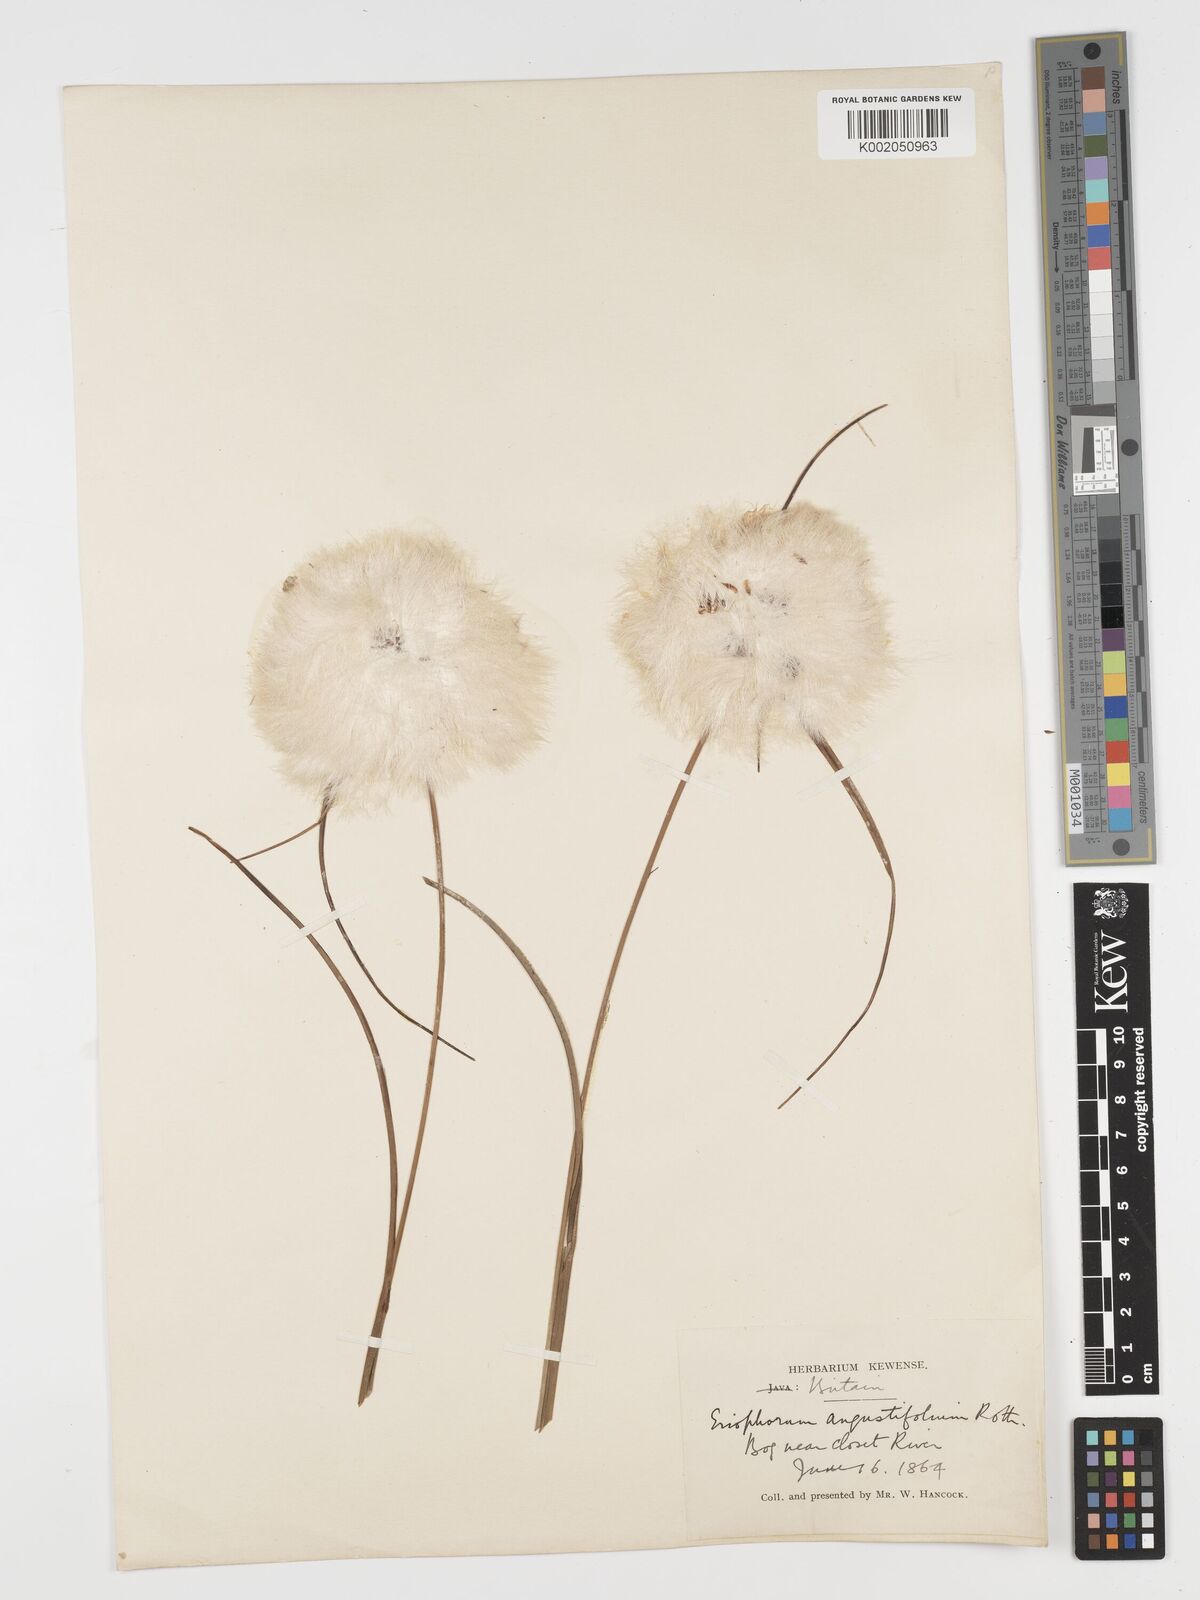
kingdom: Plantae
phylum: Tracheophyta
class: Liliopsida
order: Poales
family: Cyperaceae
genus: Eriophorum
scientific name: Eriophorum angustifolium
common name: Common cottongrass
